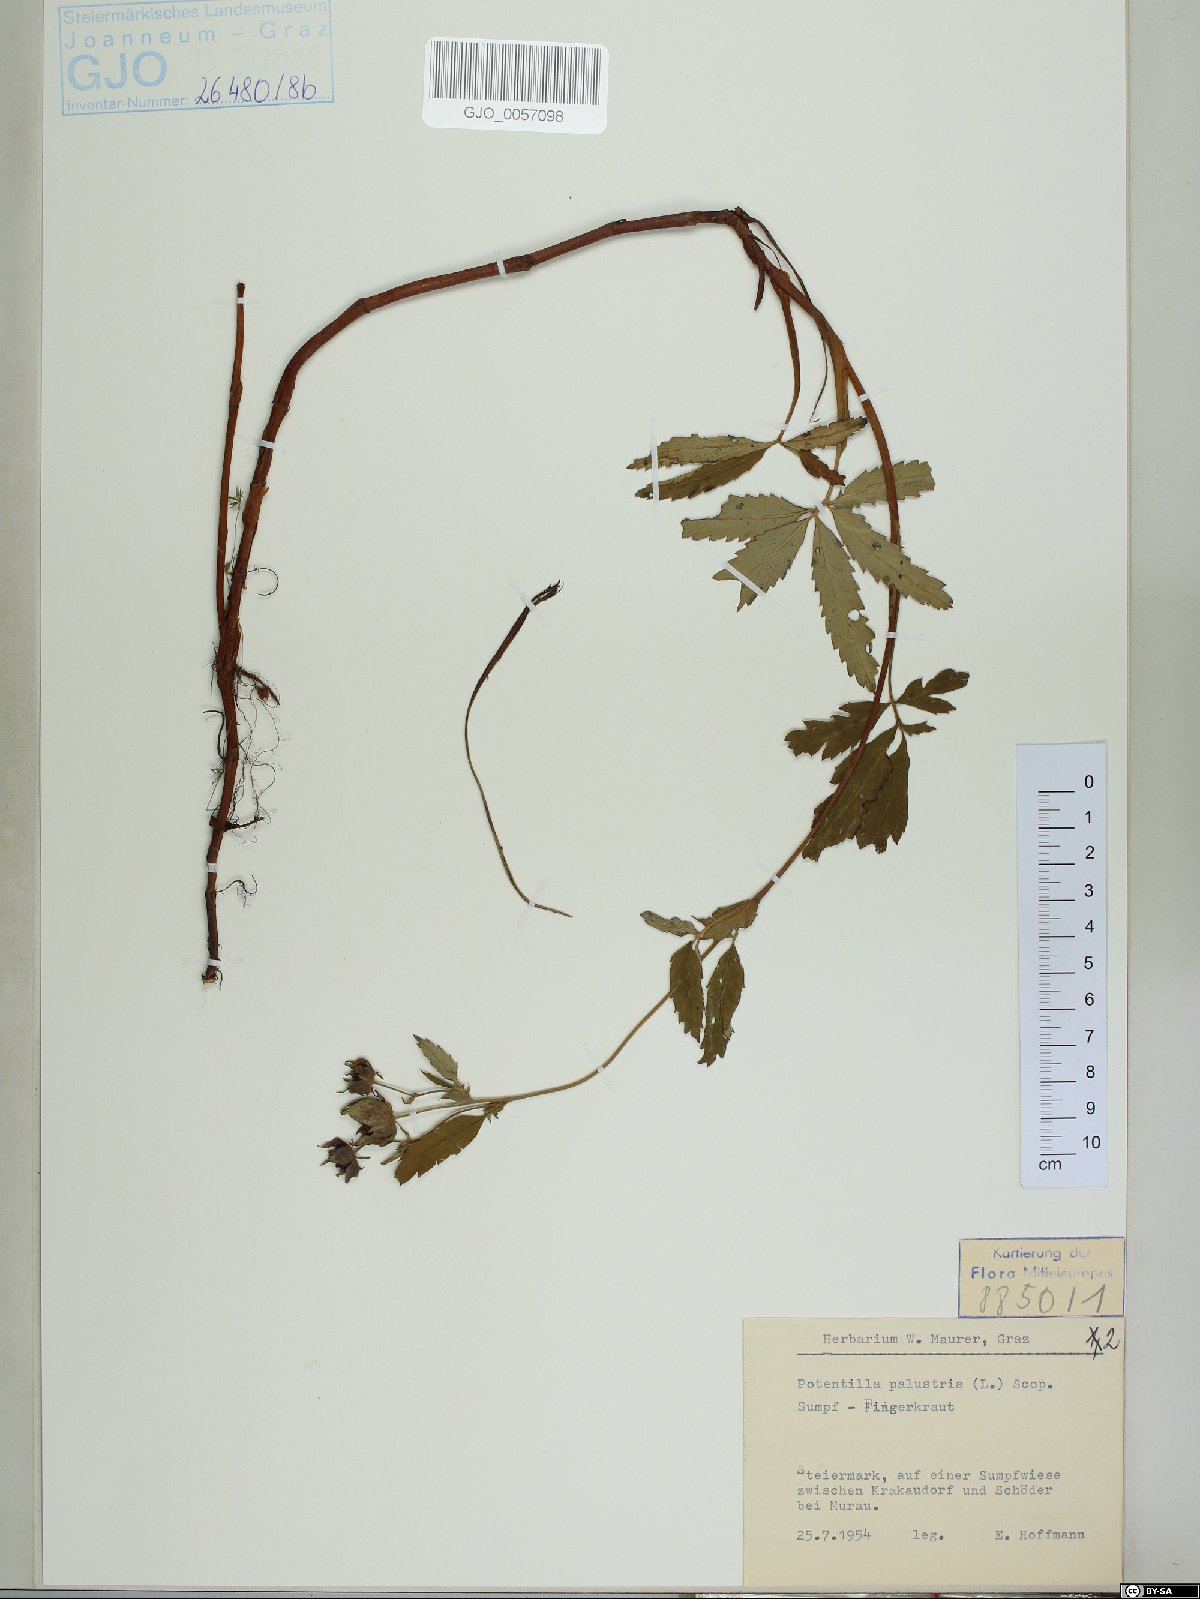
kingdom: Plantae
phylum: Tracheophyta
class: Magnoliopsida
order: Rosales
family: Rosaceae
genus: Comarum
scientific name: Comarum palustre
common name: Marsh cinquefoil
